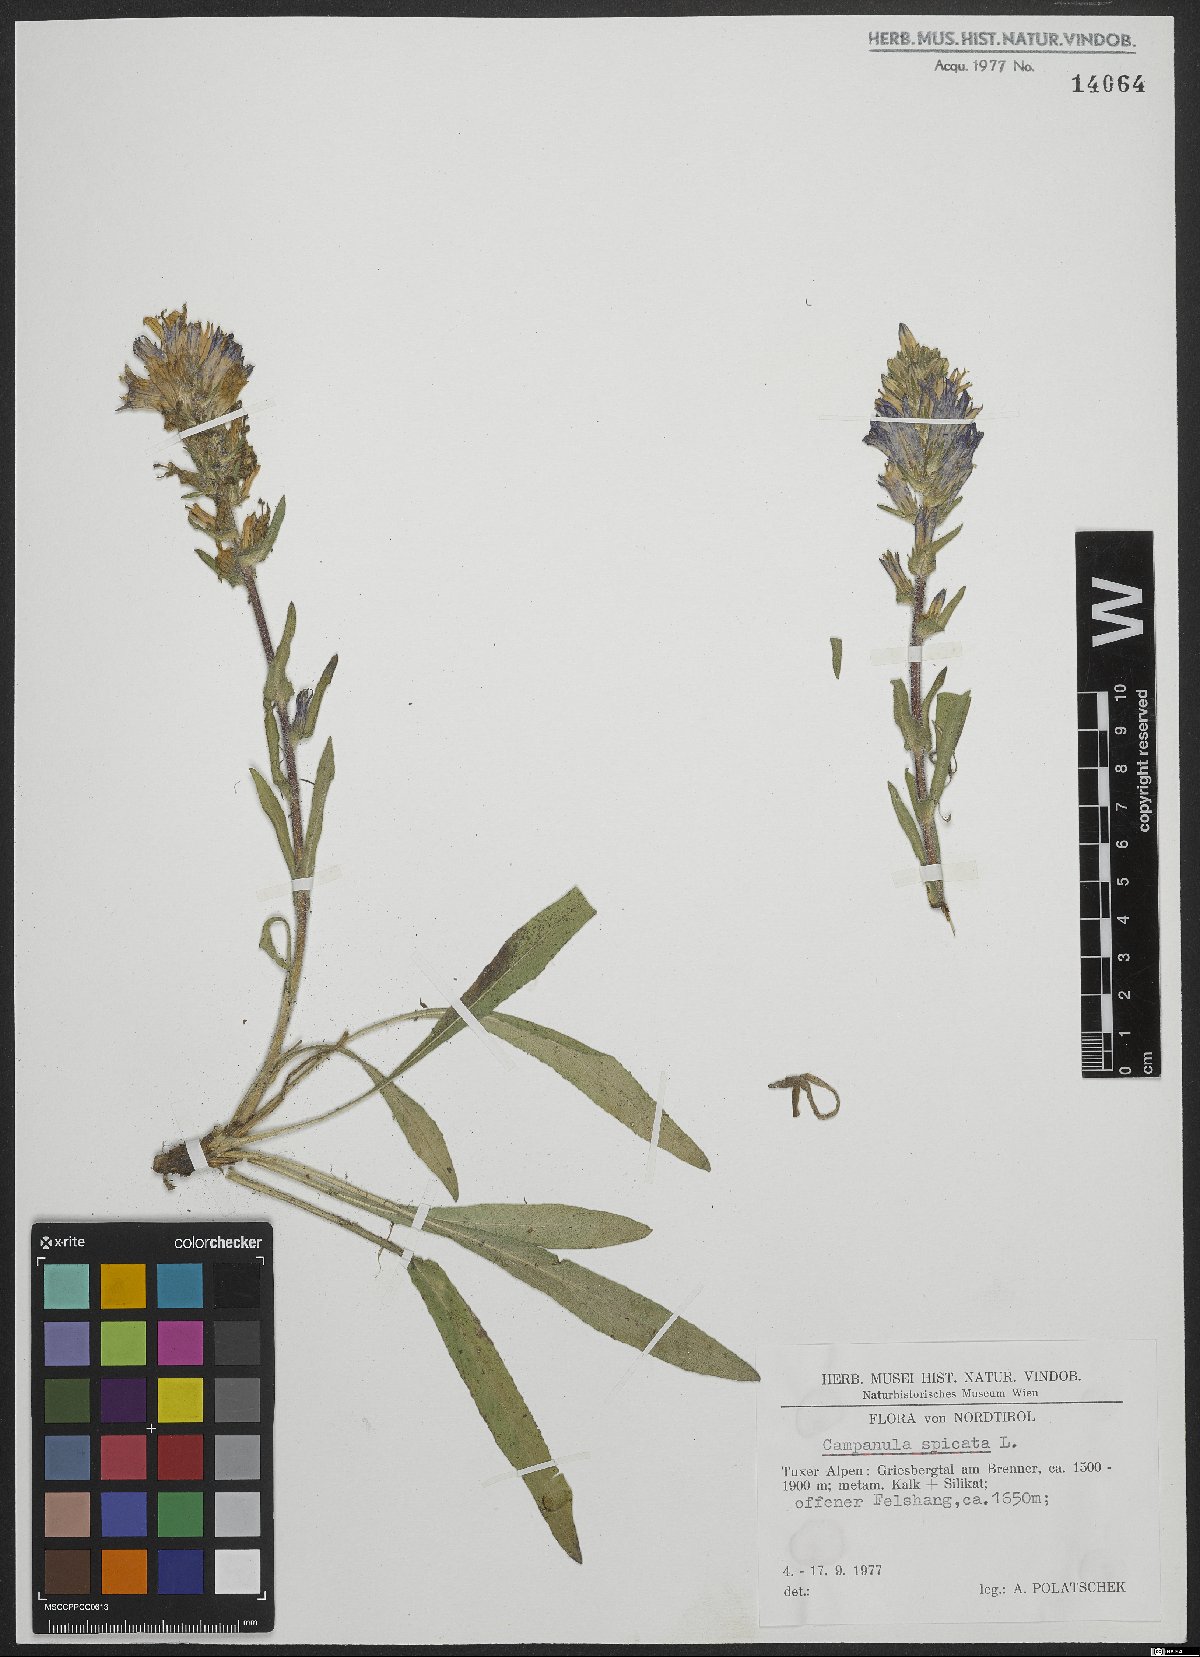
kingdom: Plantae
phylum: Tracheophyta
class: Magnoliopsida
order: Asterales
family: Campanulaceae
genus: Campanula
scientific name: Campanula spicata
